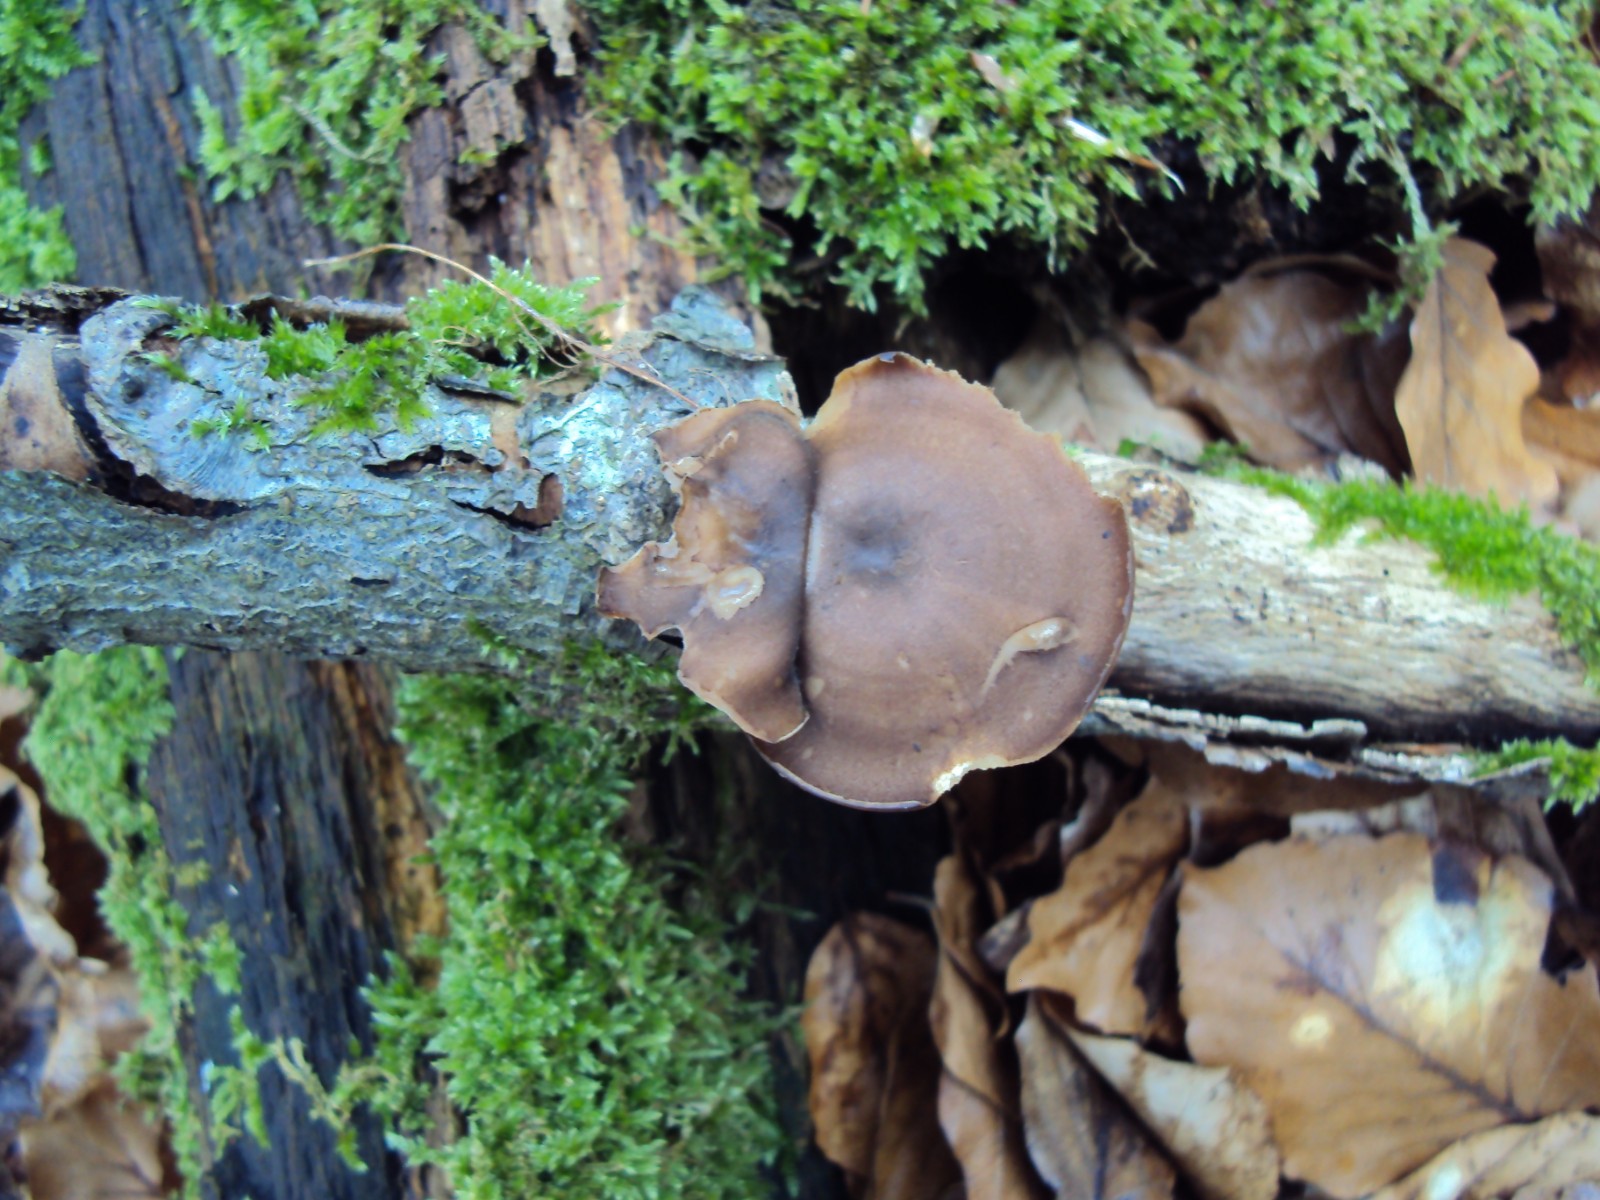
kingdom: Fungi
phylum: Basidiomycota
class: Agaricomycetes
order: Polyporales
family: Polyporaceae
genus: Lentinus
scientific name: Lentinus substrictus
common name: forårs-stilkporesvamp
